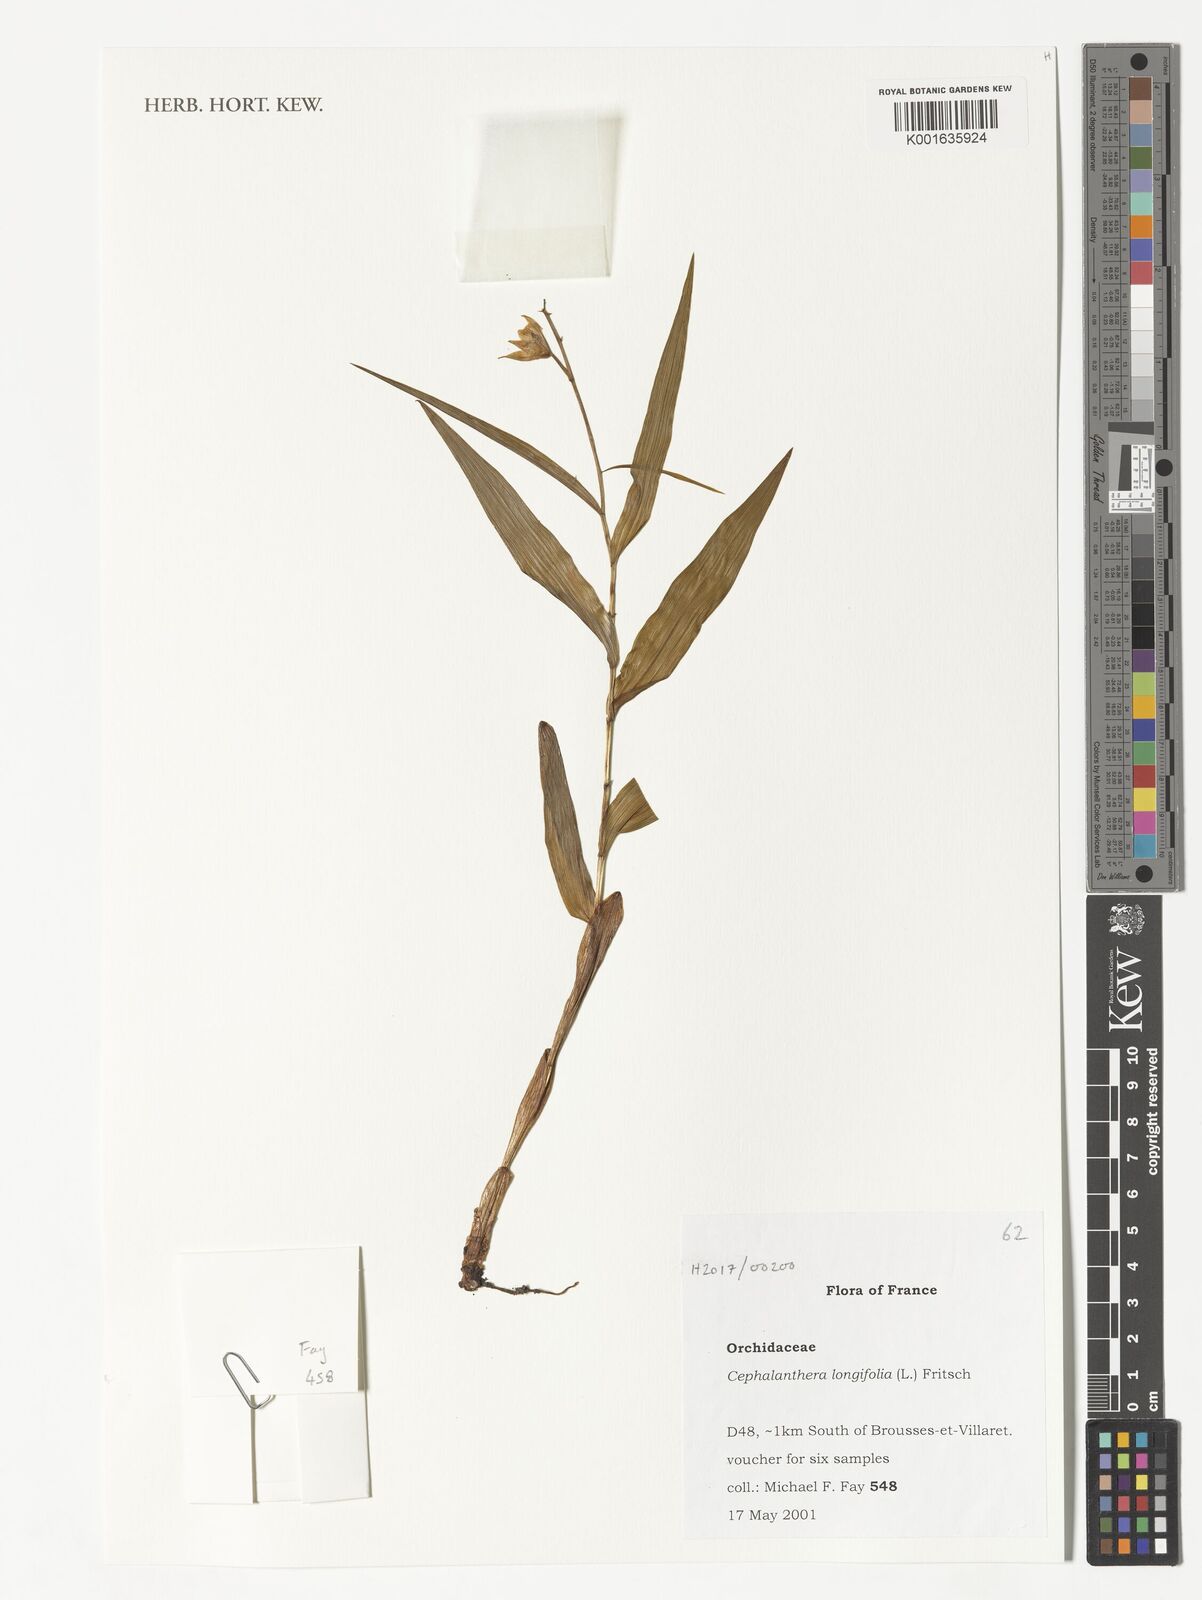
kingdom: Plantae
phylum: Tracheophyta
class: Liliopsida
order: Asparagales
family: Orchidaceae
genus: Cephalanthera
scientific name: Cephalanthera longifolia
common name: Narrow-leaved helleborine
